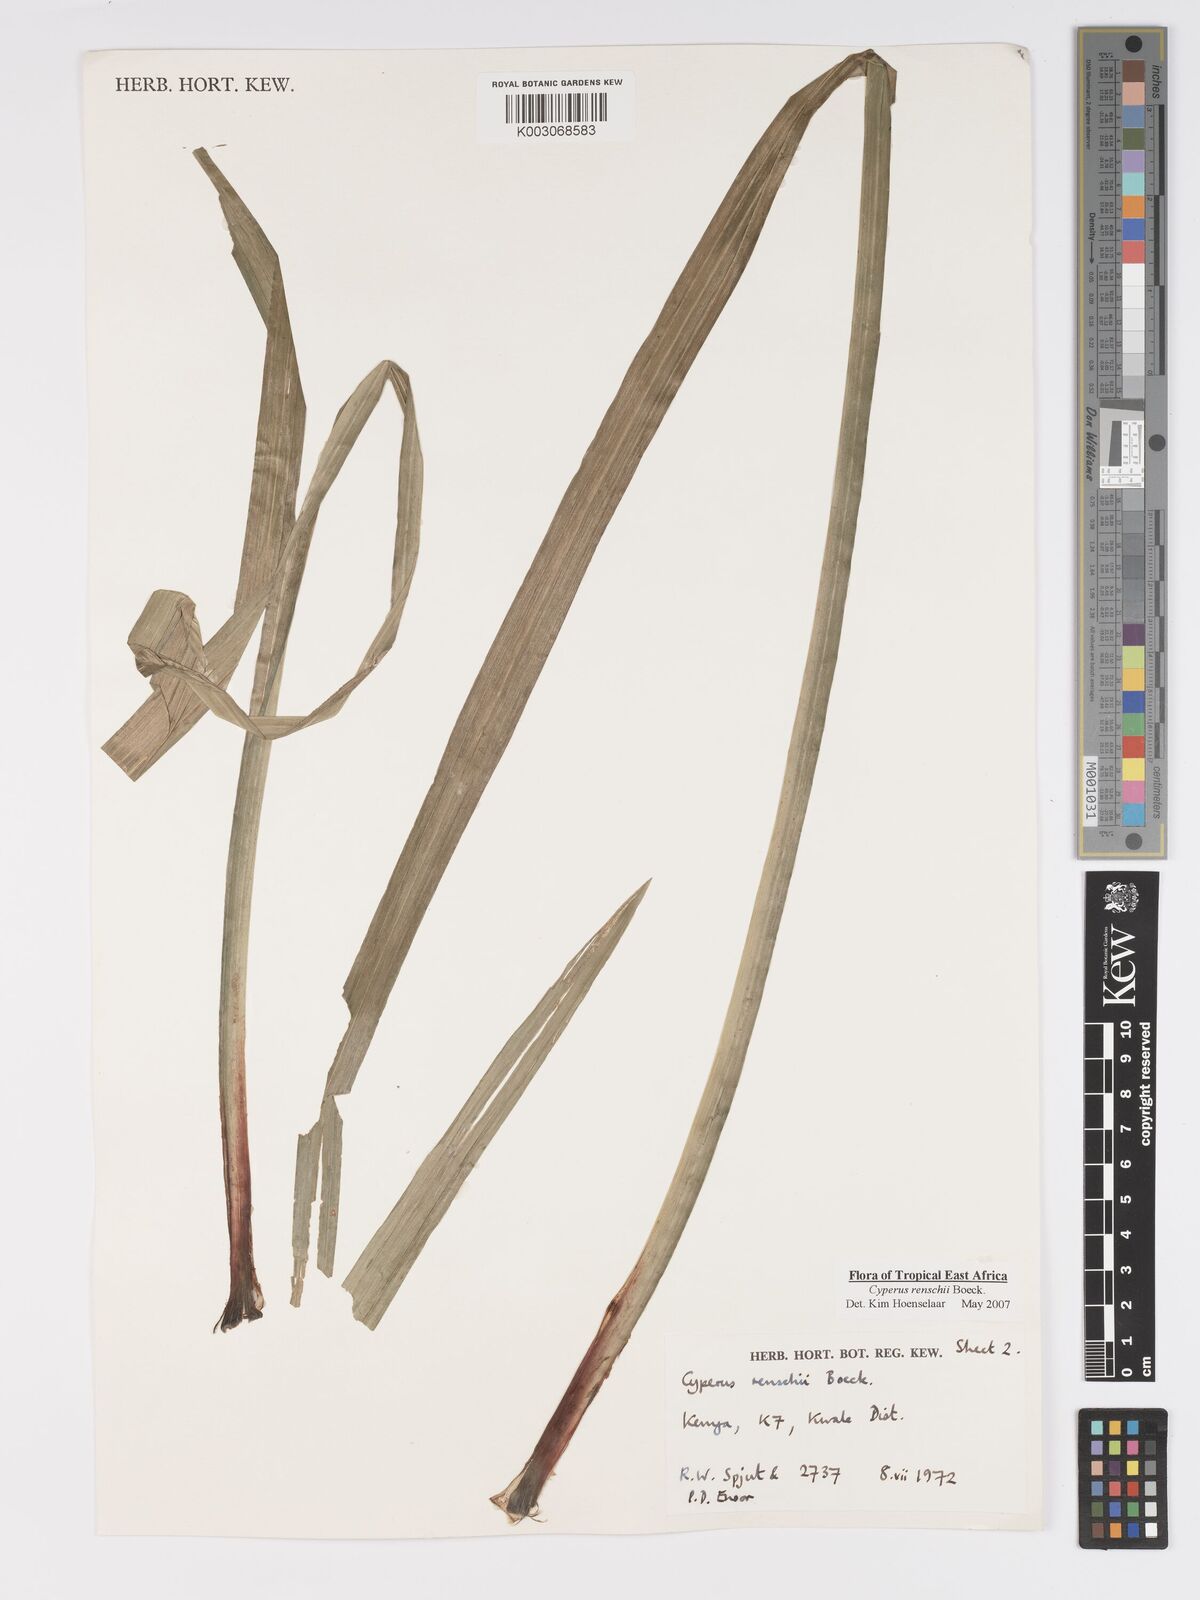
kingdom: Plantae
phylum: Tracheophyta
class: Liliopsida
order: Poales
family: Cyperaceae
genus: Cyperus
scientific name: Cyperus renschii
